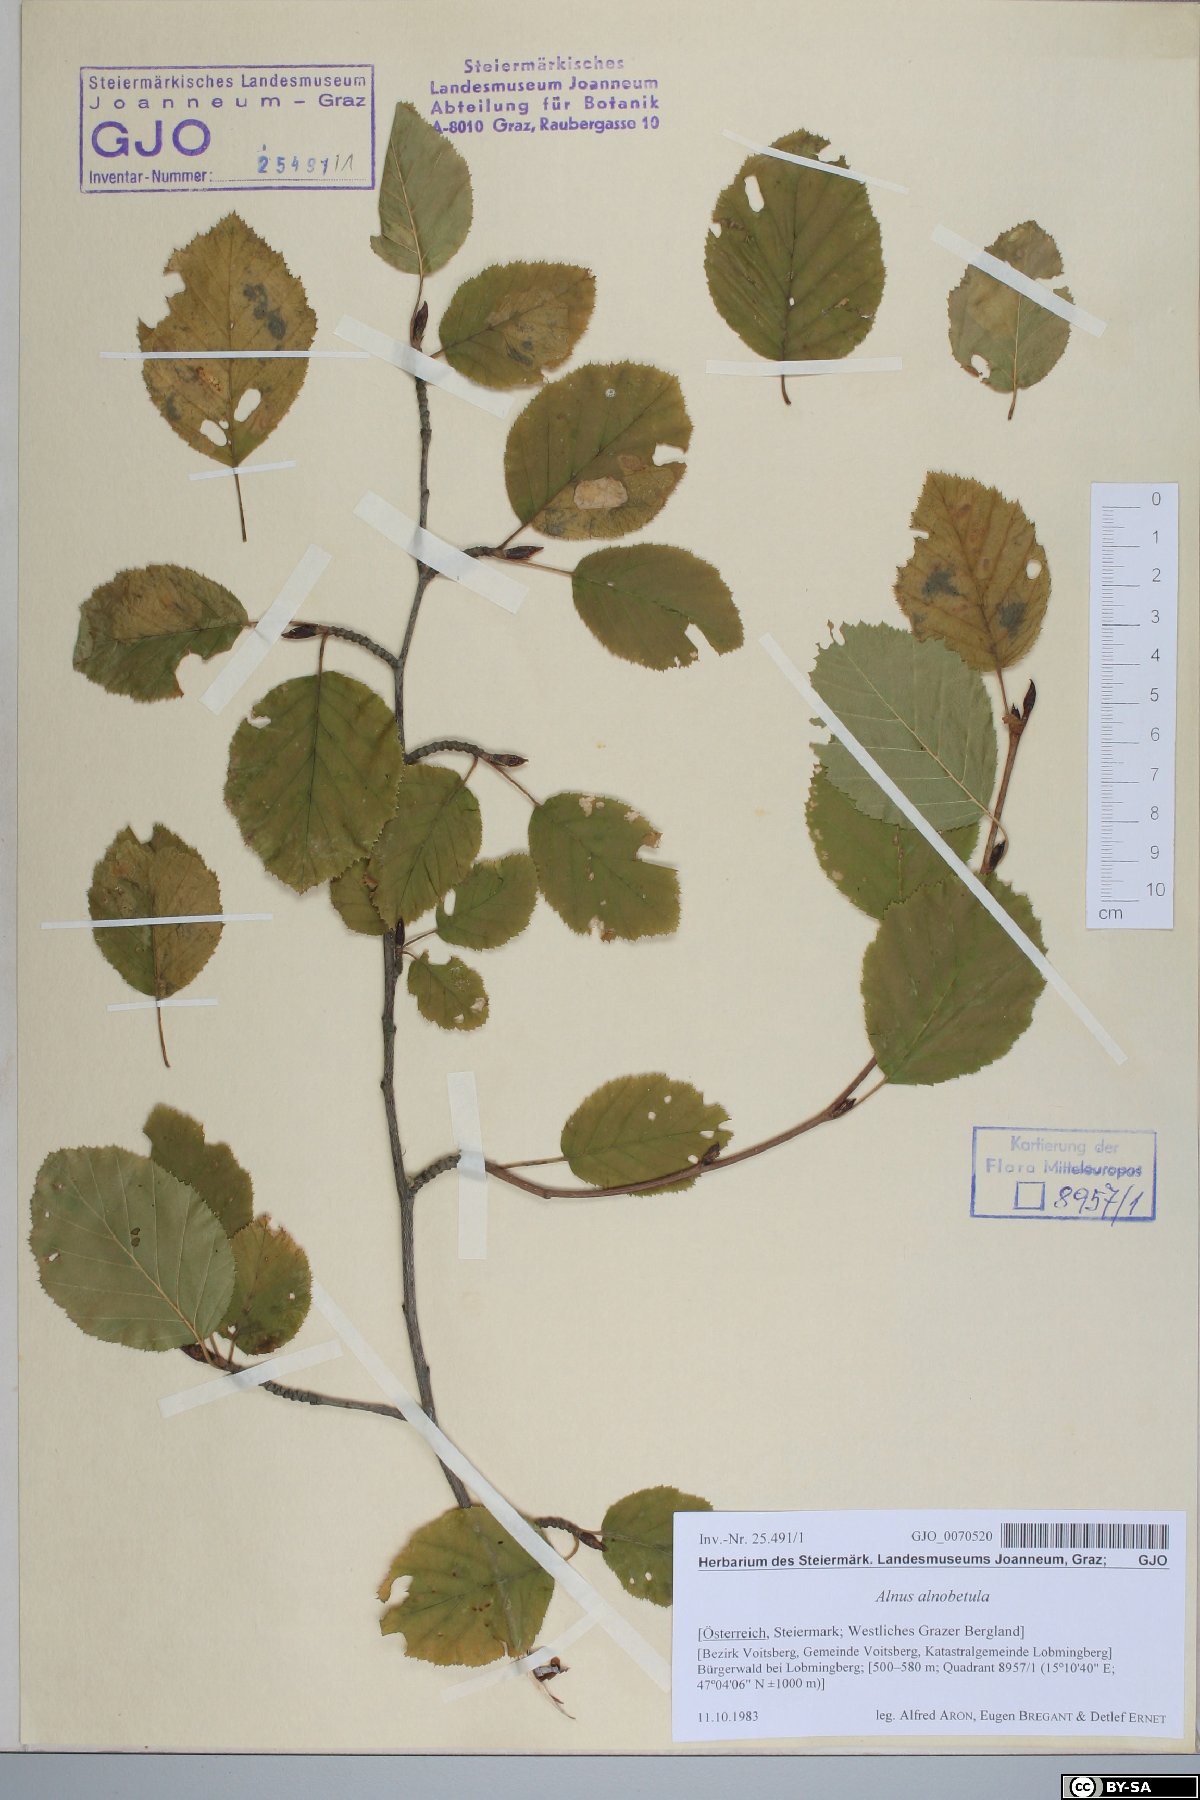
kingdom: Plantae
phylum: Tracheophyta
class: Magnoliopsida
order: Fagales
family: Betulaceae
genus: Alnus
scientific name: Alnus alnobetula
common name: Green alder
